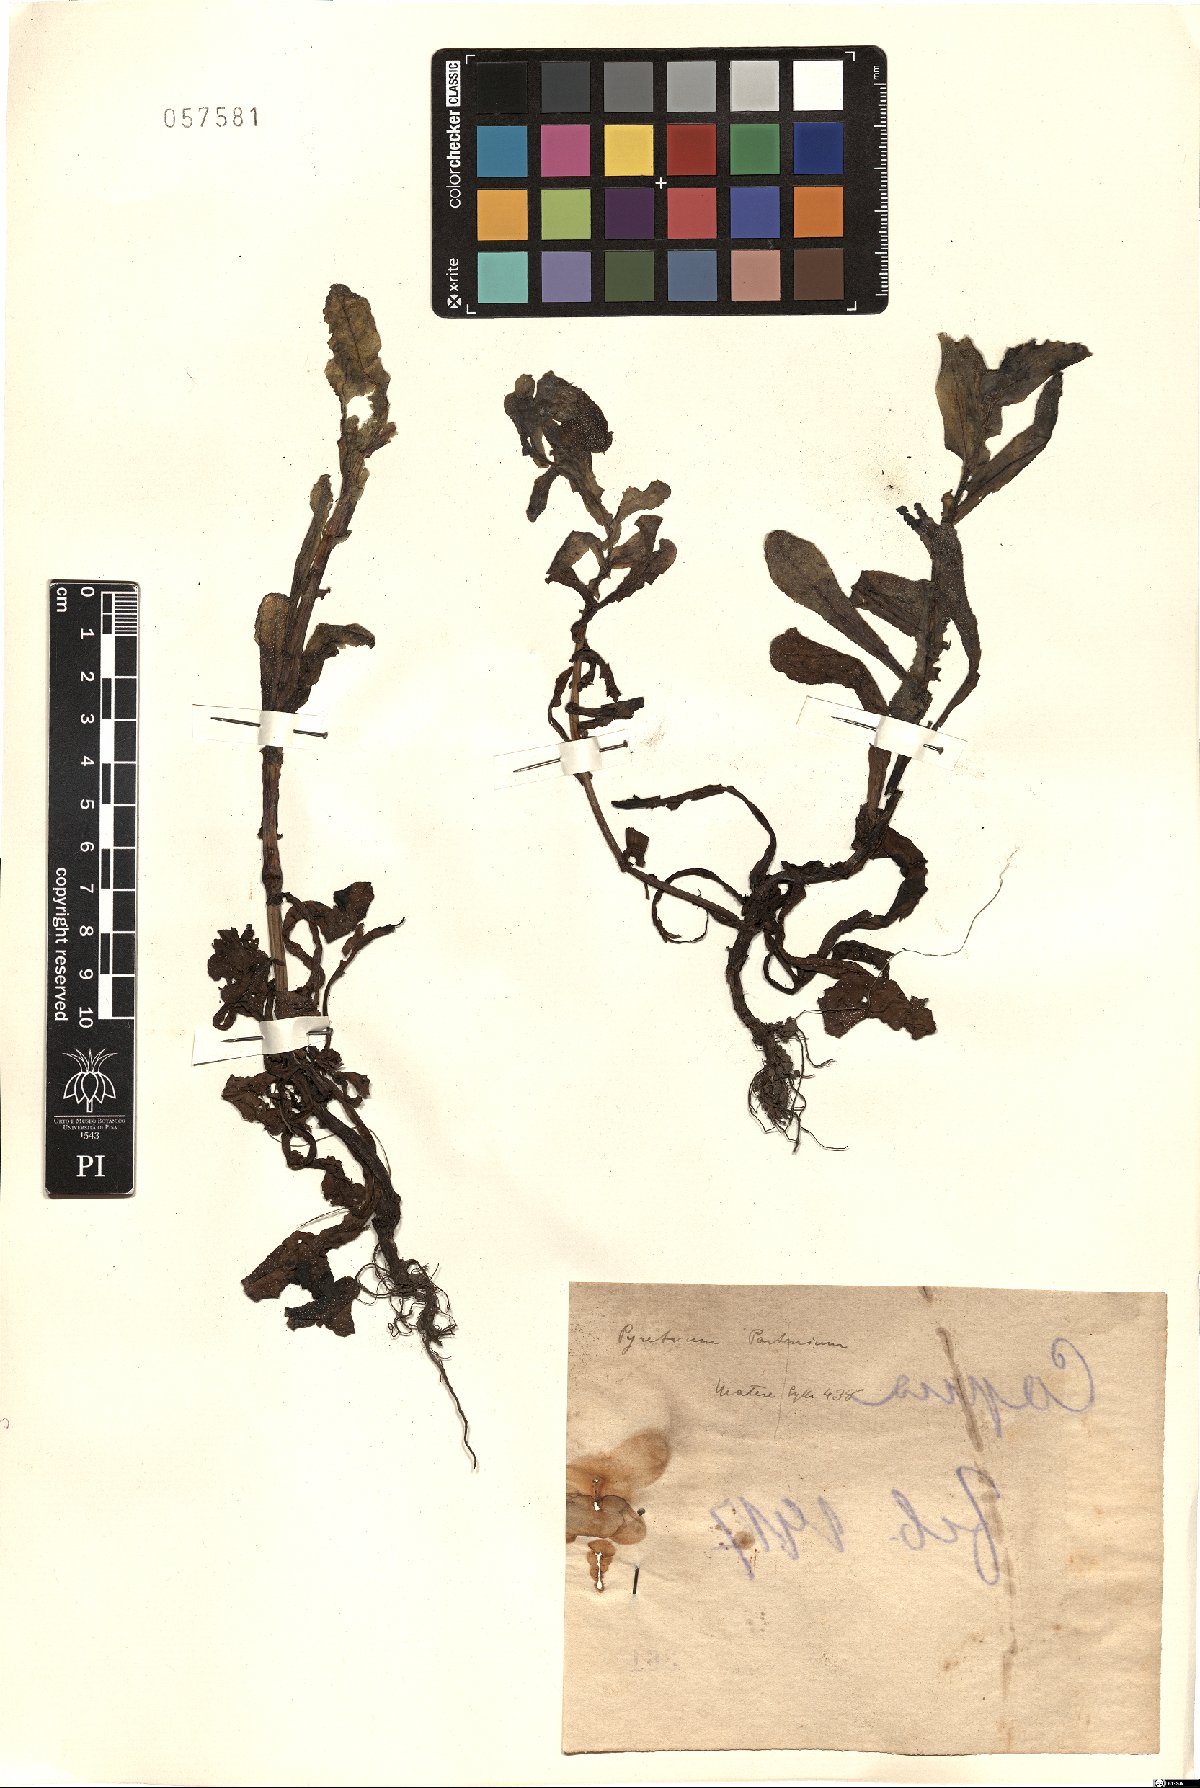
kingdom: Plantae
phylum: Tracheophyta
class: Magnoliopsida
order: Boraginales
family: Boraginaceae
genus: Cerinthe
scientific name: Cerinthe
